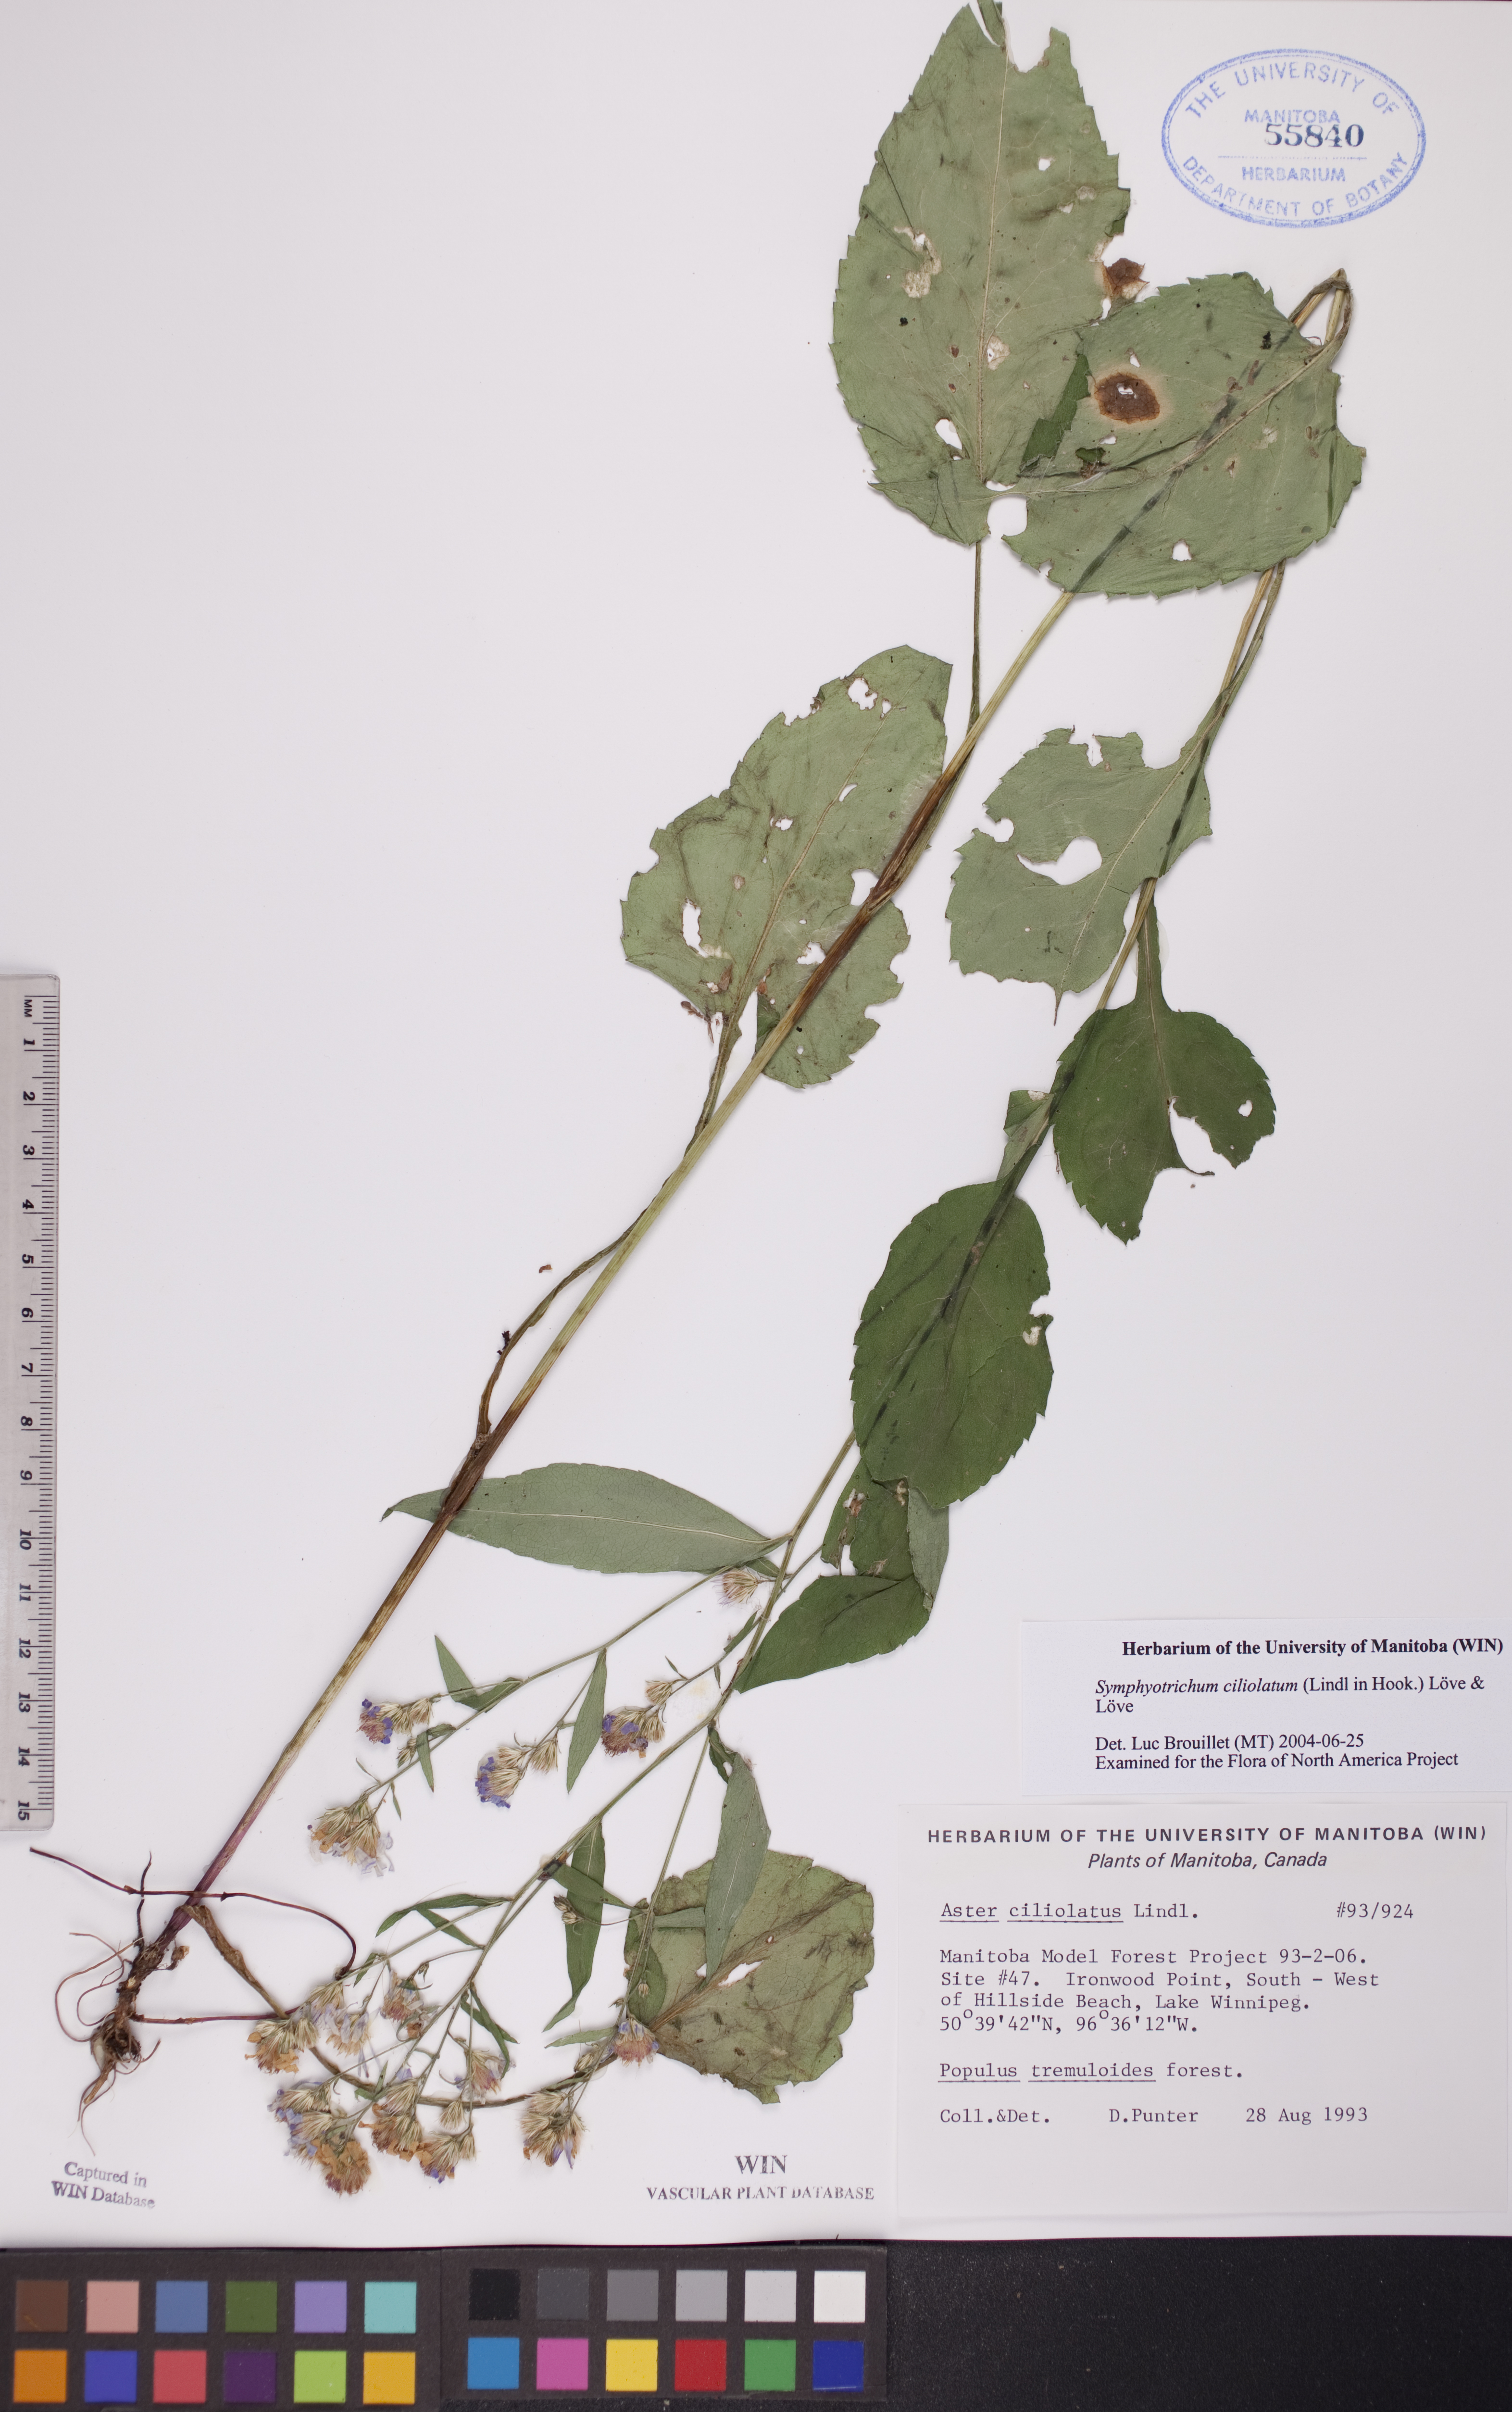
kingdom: Plantae
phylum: Tracheophyta
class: Magnoliopsida
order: Asterales
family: Asteraceae
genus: Symphyotrichum
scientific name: Symphyotrichum ciliolatum
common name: Fringed blue aster
